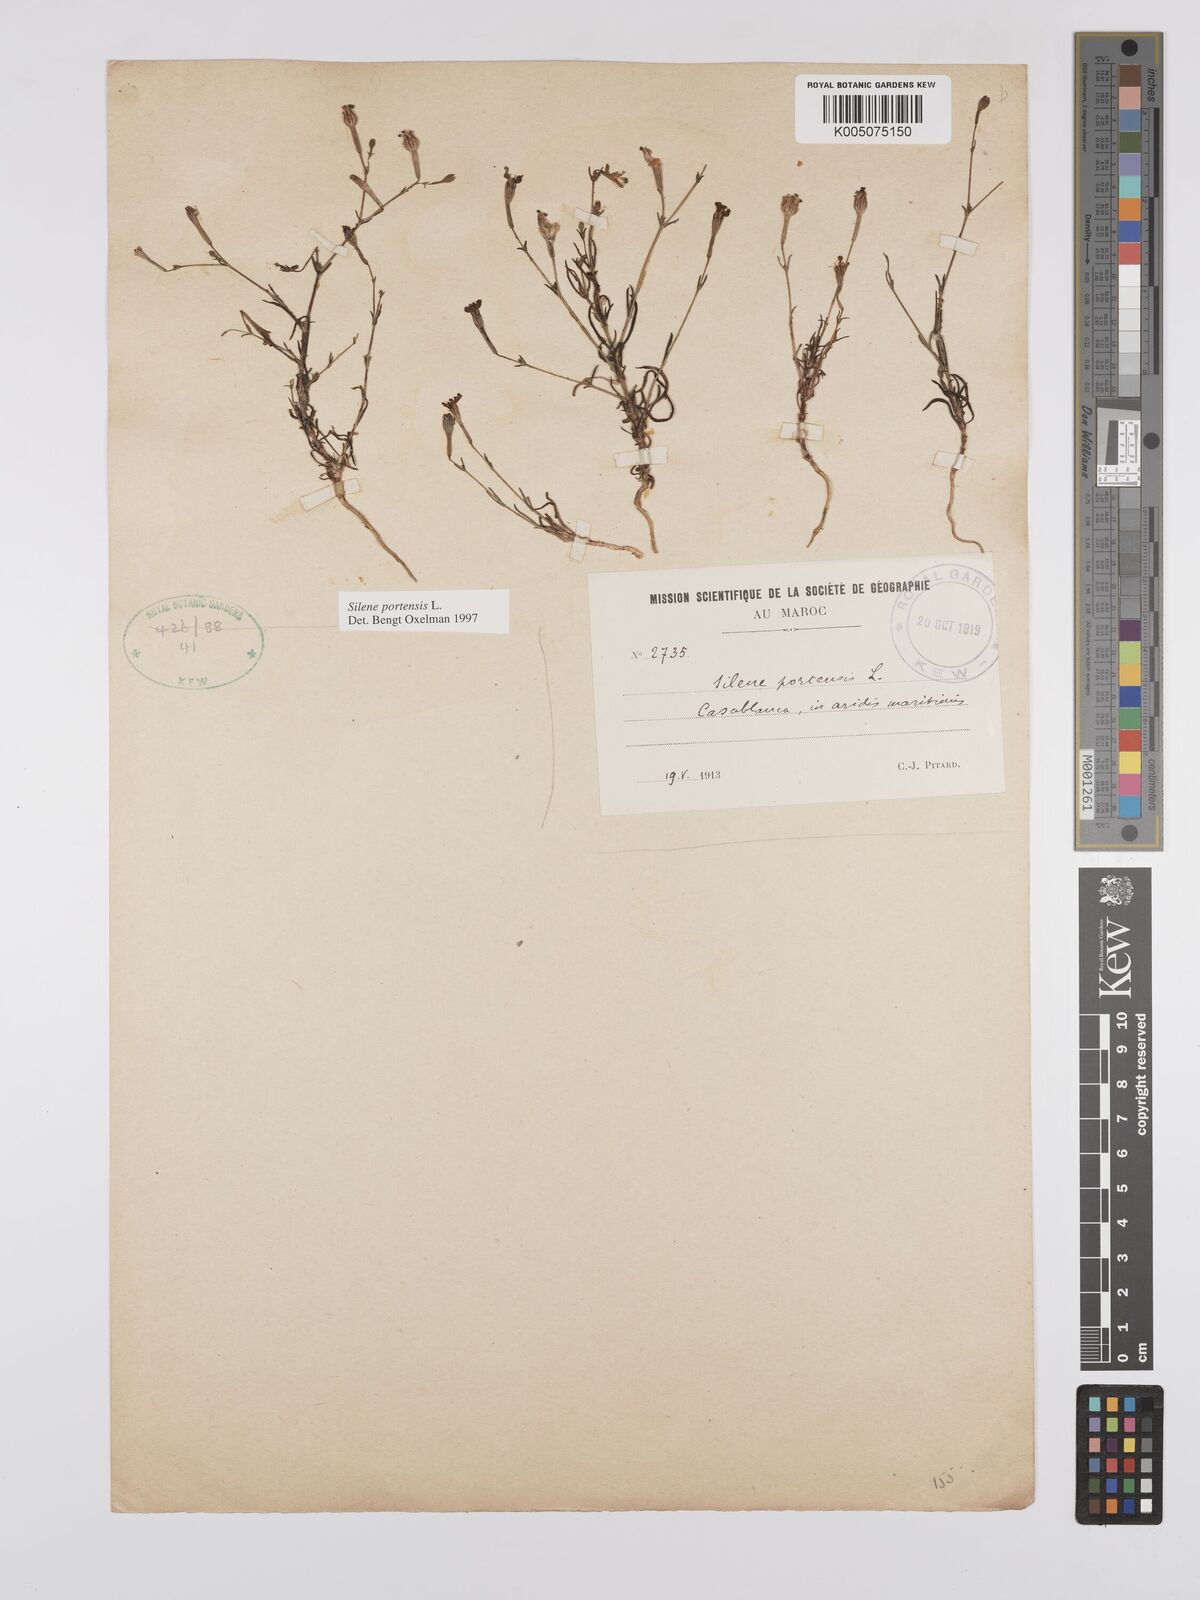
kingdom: Plantae
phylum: Tracheophyta
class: Magnoliopsida
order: Caryophyllales
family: Caryophyllaceae
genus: Silene
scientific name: Silene portensis
